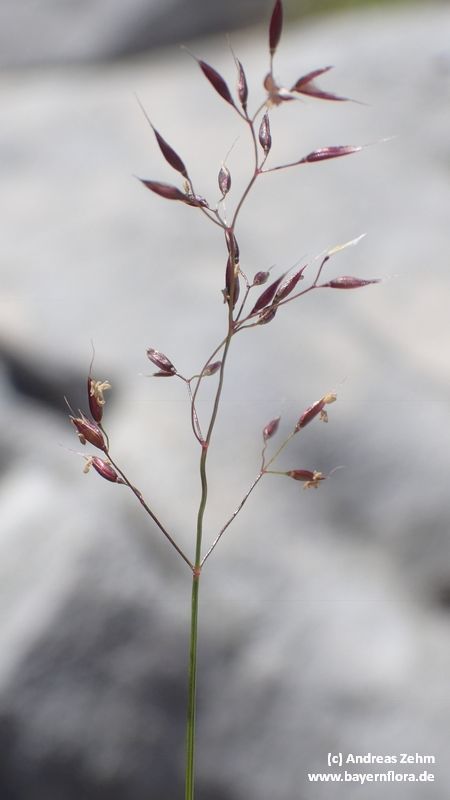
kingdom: Plantae
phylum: Tracheophyta
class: Liliopsida
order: Poales
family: Poaceae
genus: Agrostis
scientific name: Agrostis rupestris
